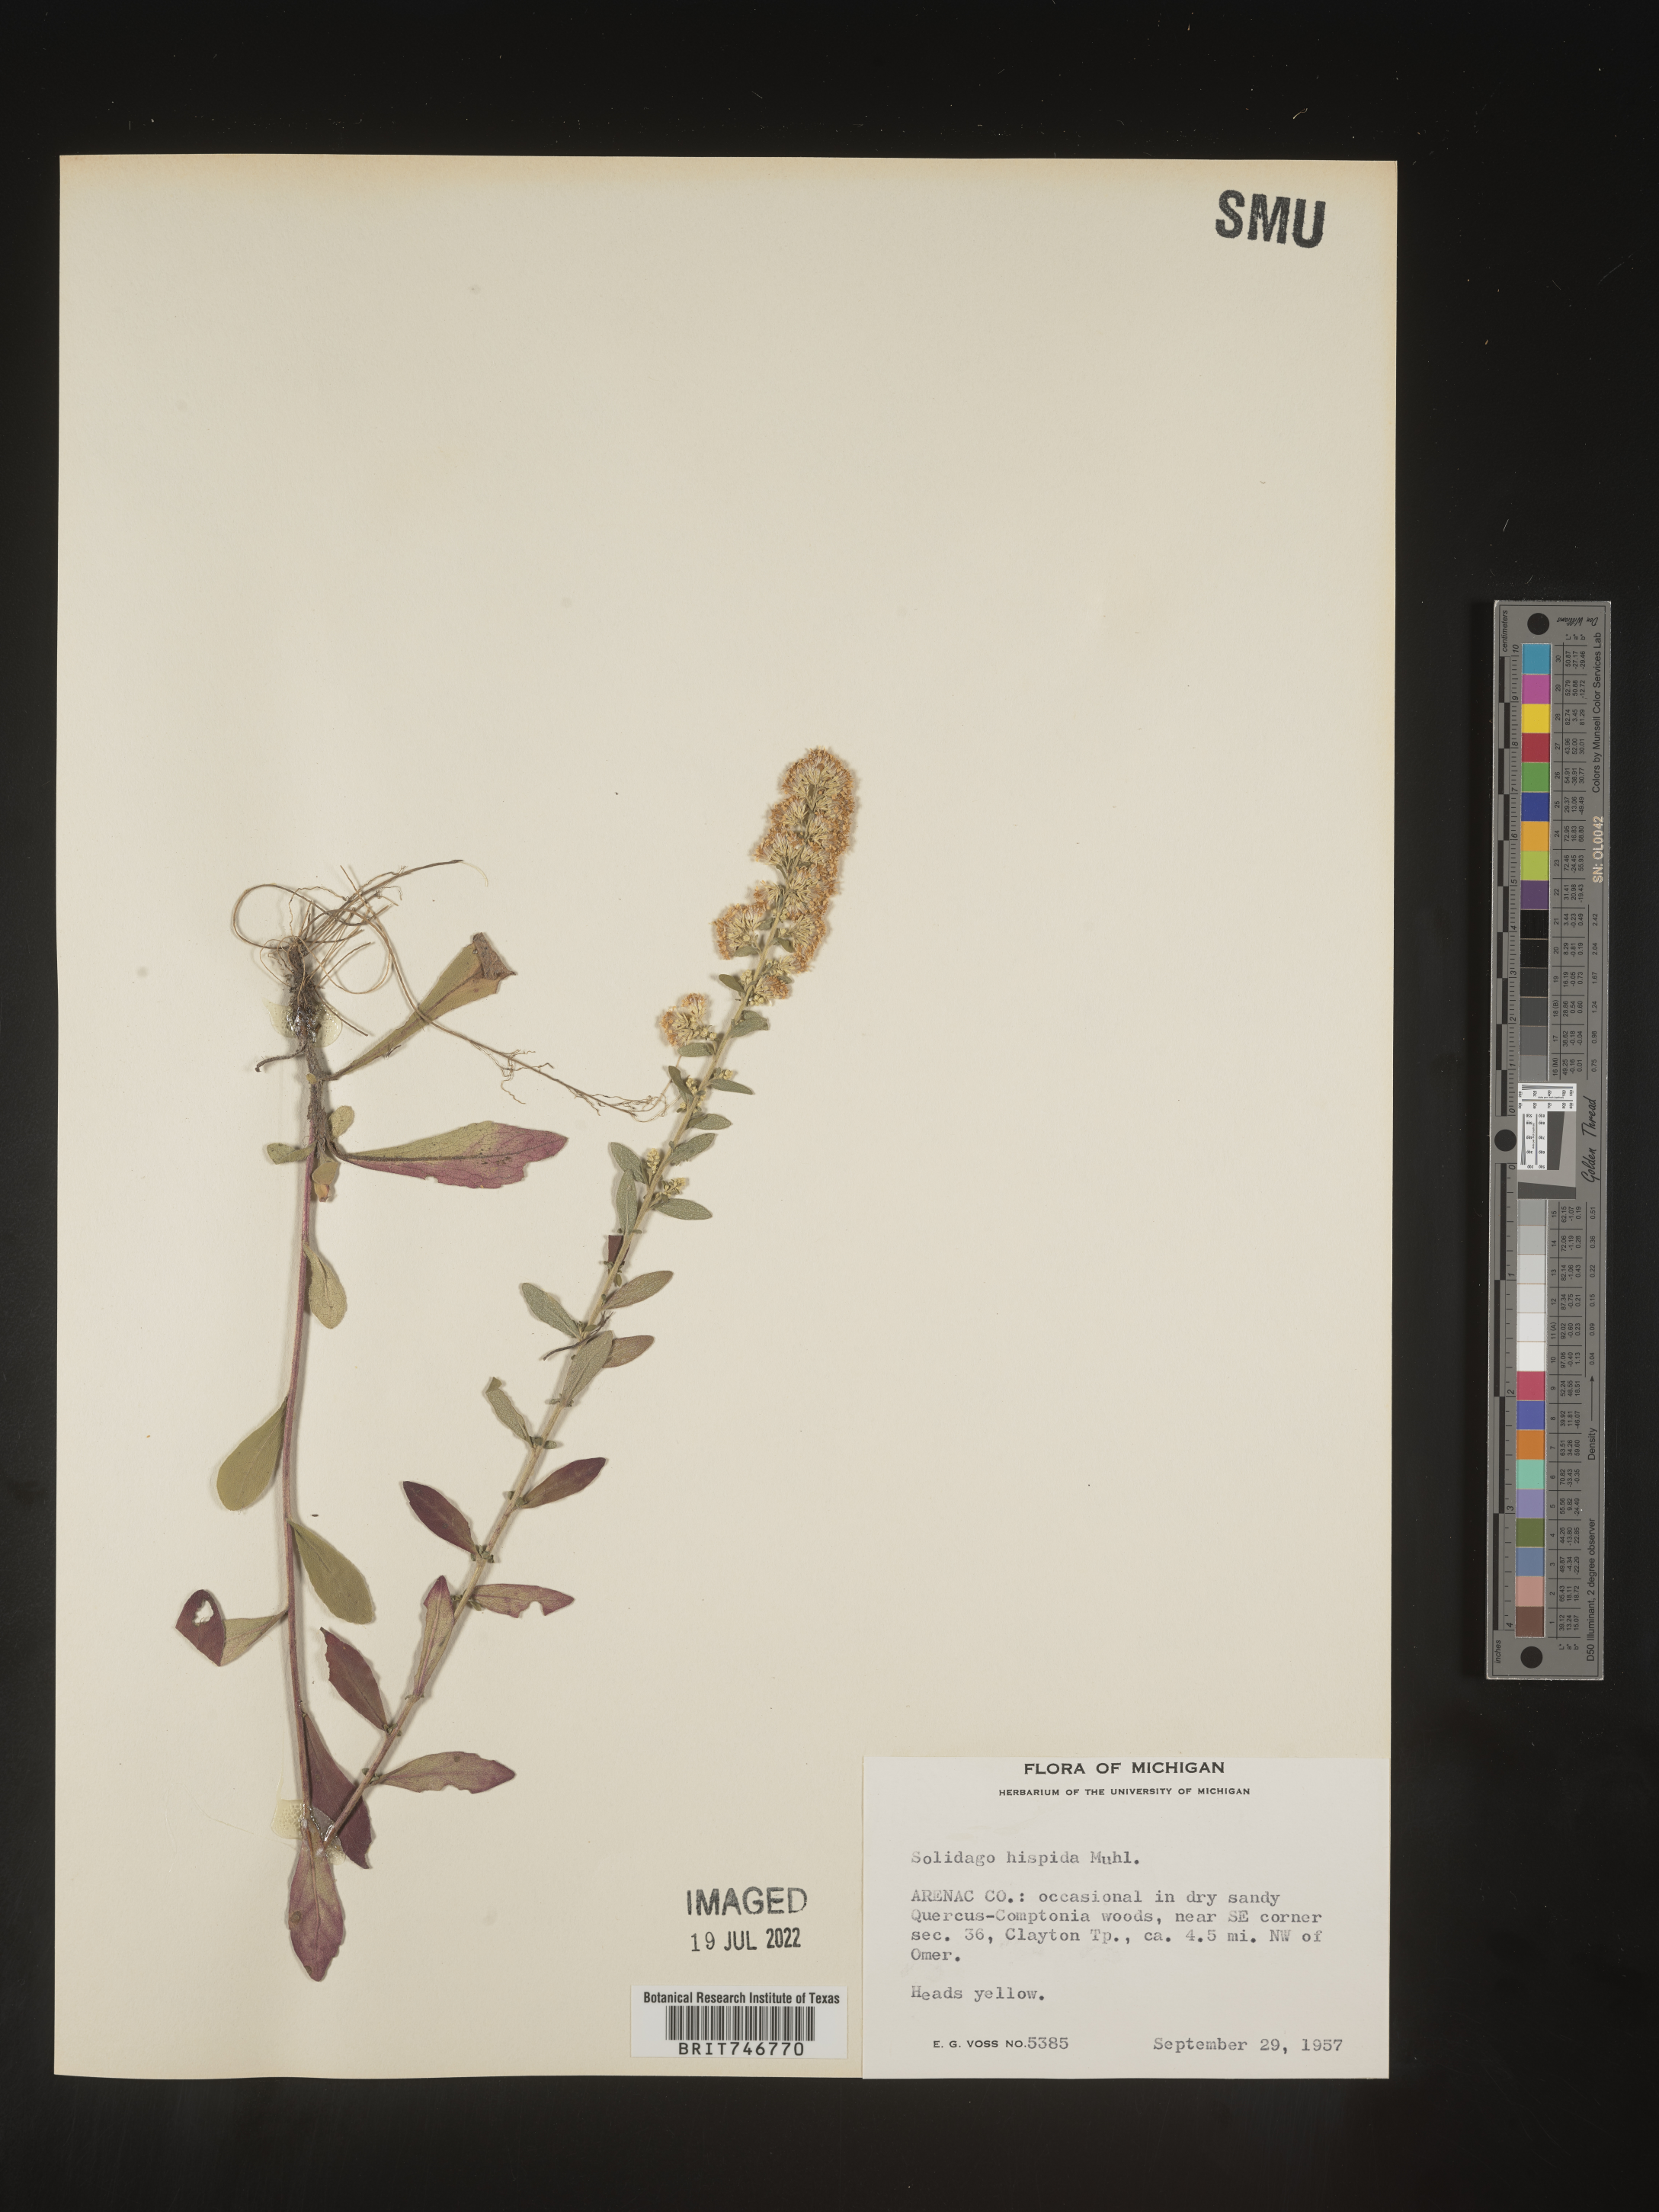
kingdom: Plantae
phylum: Tracheophyta
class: Magnoliopsida
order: Asterales
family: Asteraceae
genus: Solidago
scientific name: Solidago hispida
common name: Hairy goldenrod
